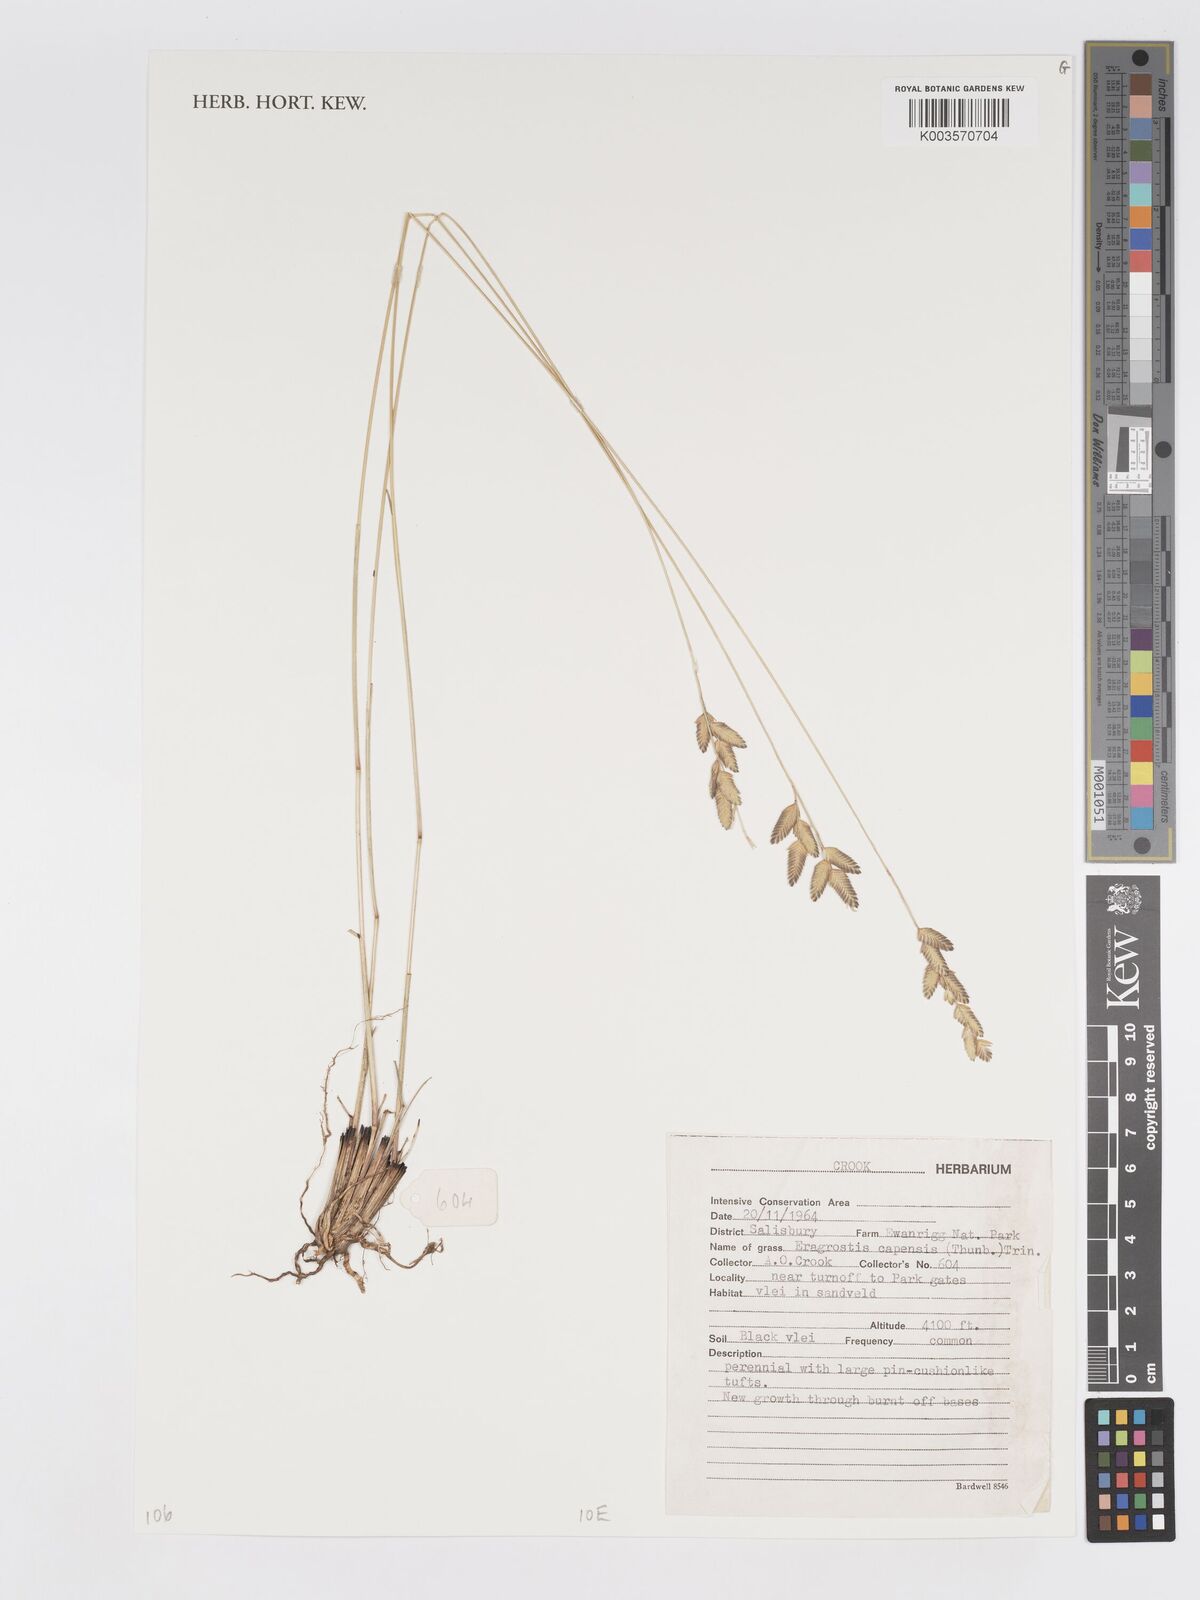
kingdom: Plantae
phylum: Tracheophyta
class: Liliopsida
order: Poales
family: Poaceae
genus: Eragrostis
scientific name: Eragrostis capensis
